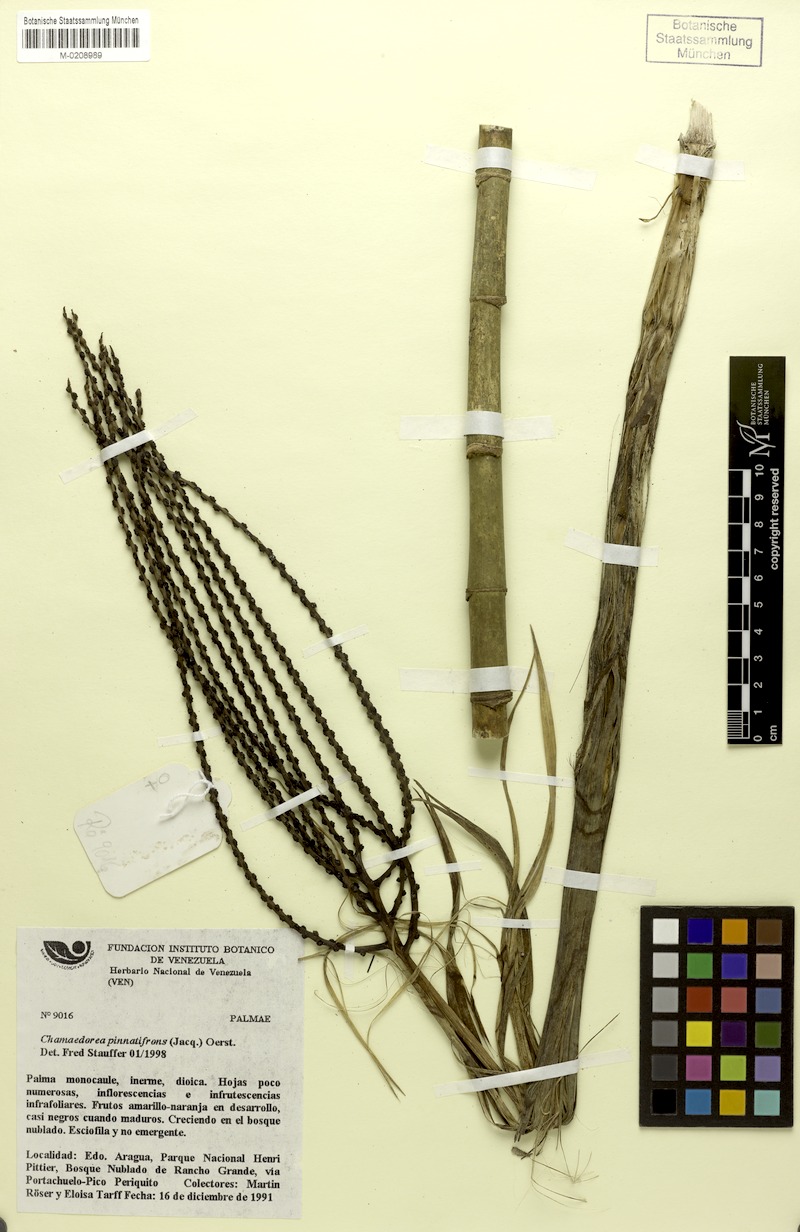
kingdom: Plantae
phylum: Tracheophyta
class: Liliopsida
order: Arecales
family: Arecaceae
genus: Chamaedorea
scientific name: Chamaedorea pinnatifrons
